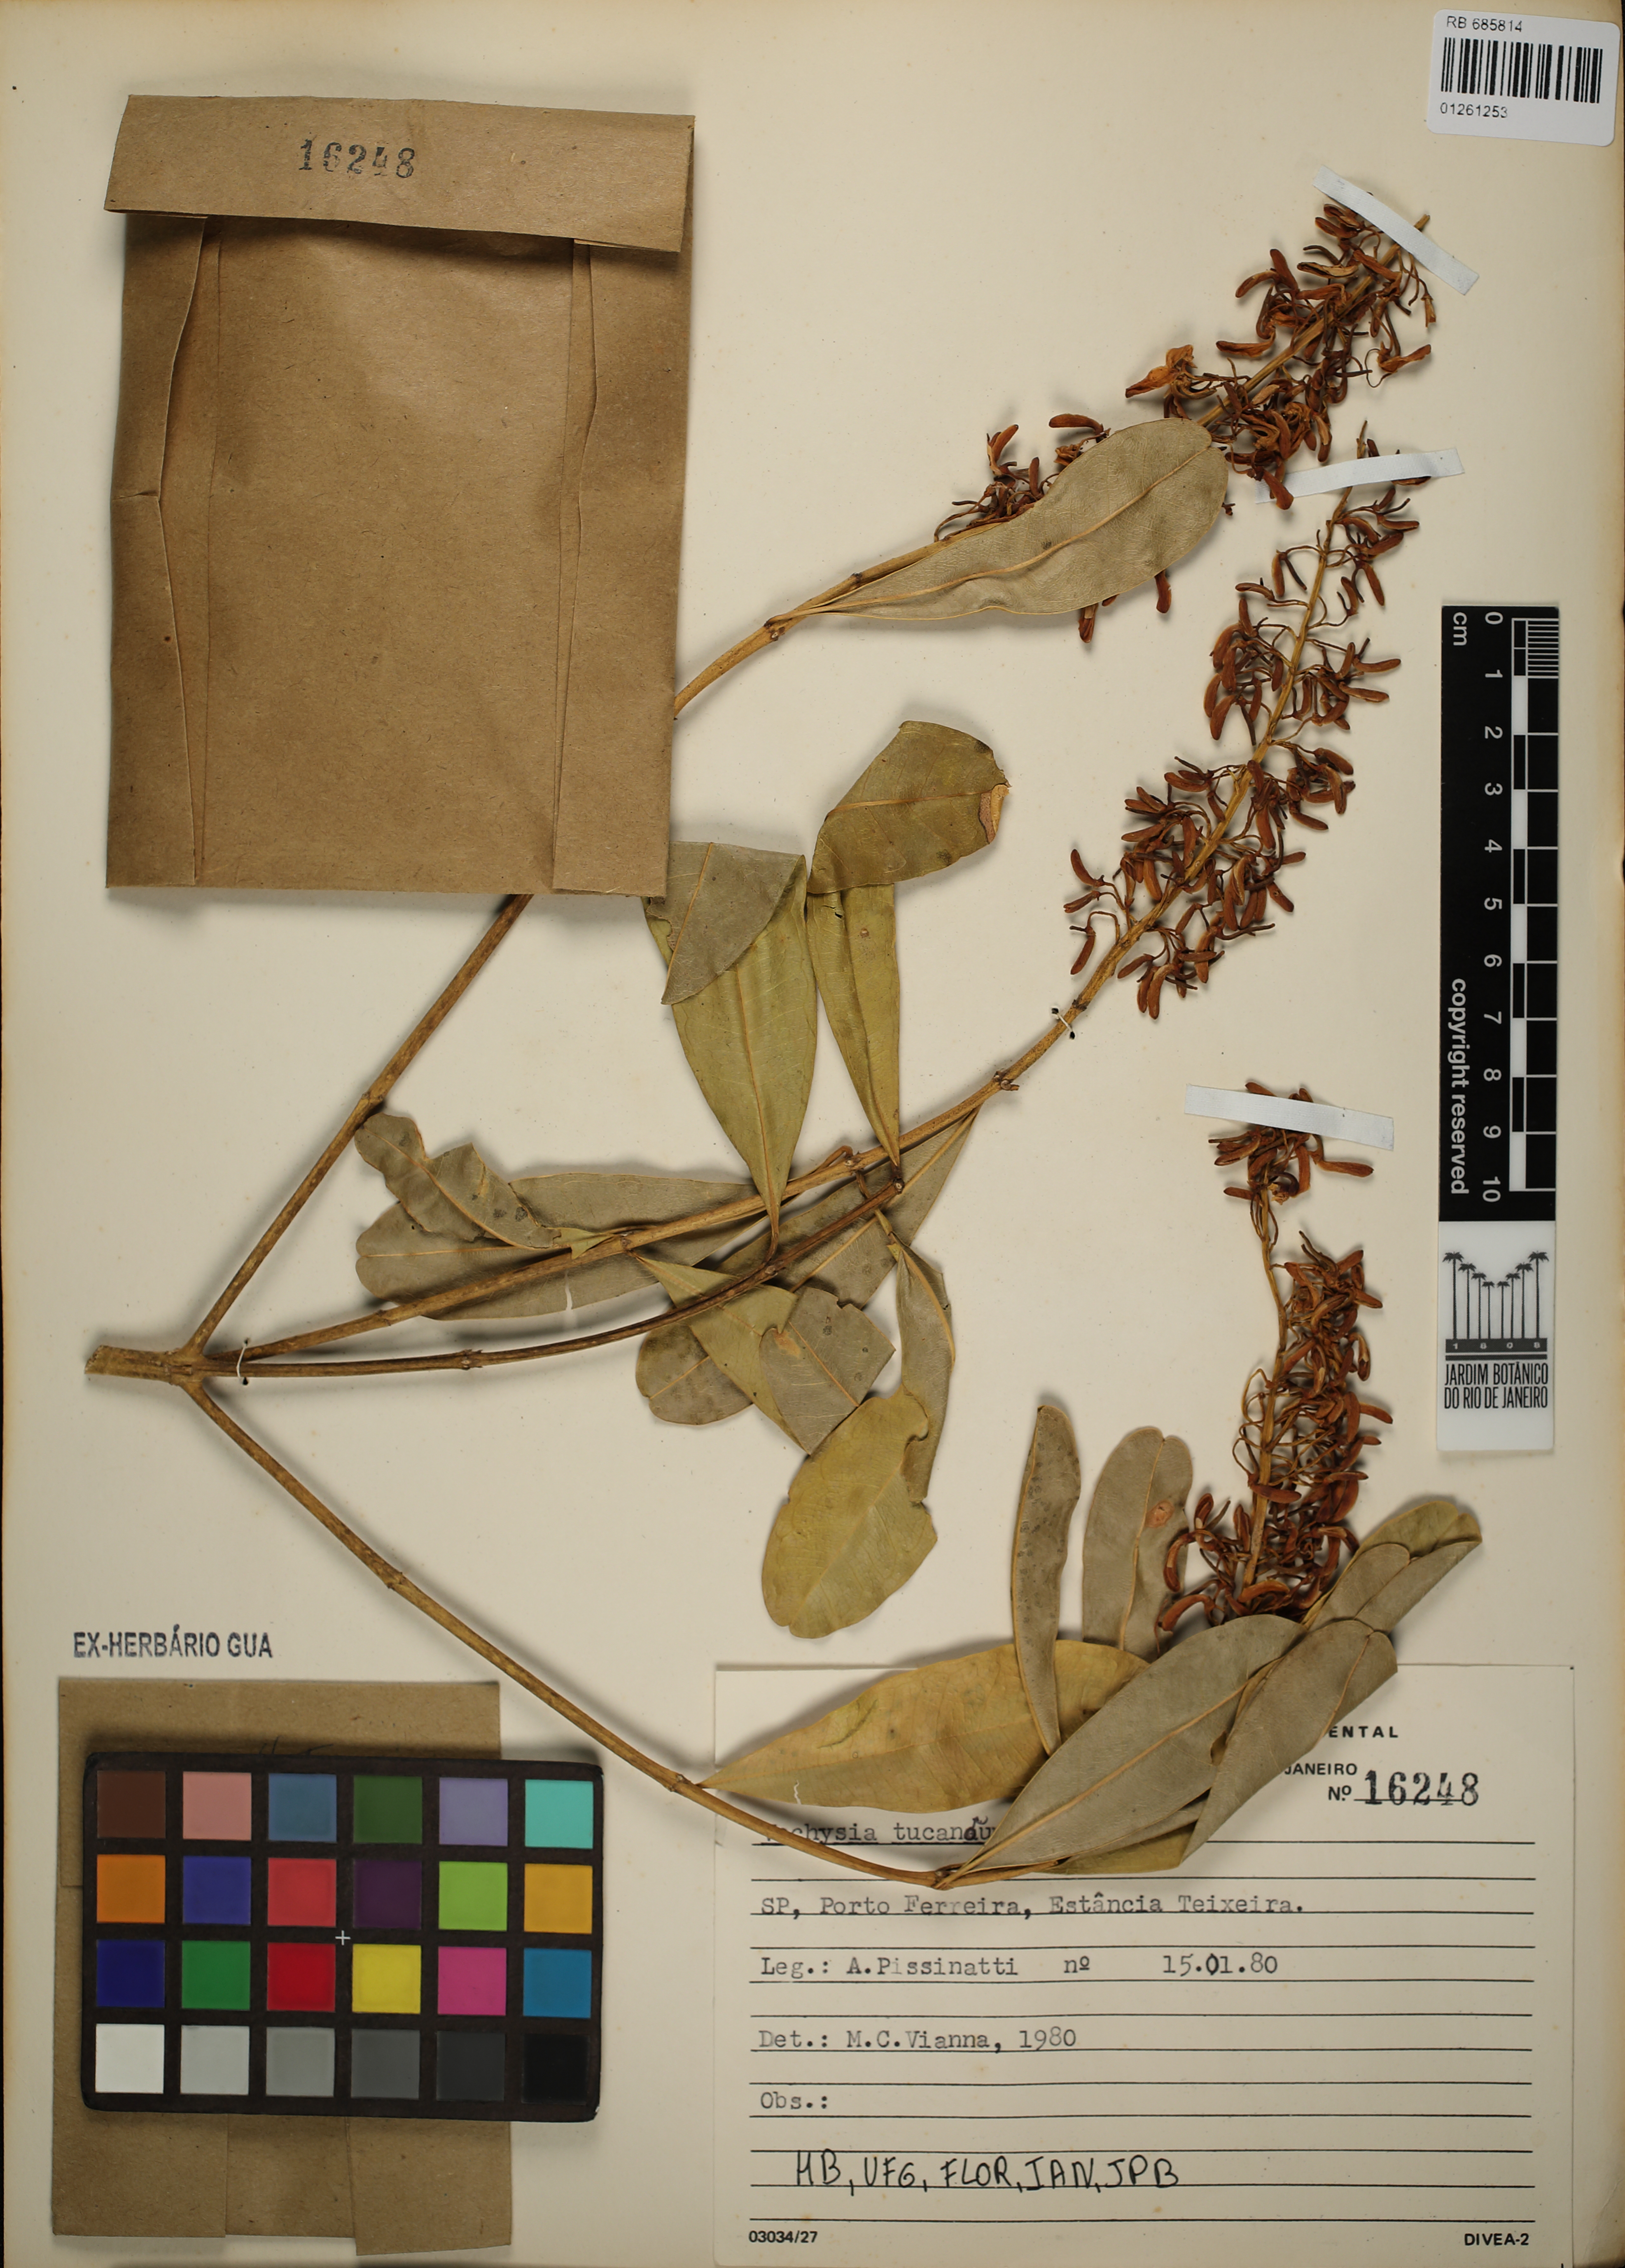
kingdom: Plantae
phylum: Tracheophyta
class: Magnoliopsida
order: Myrtales
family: Vochysiaceae
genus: Vochysia
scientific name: Vochysia tucanorum
